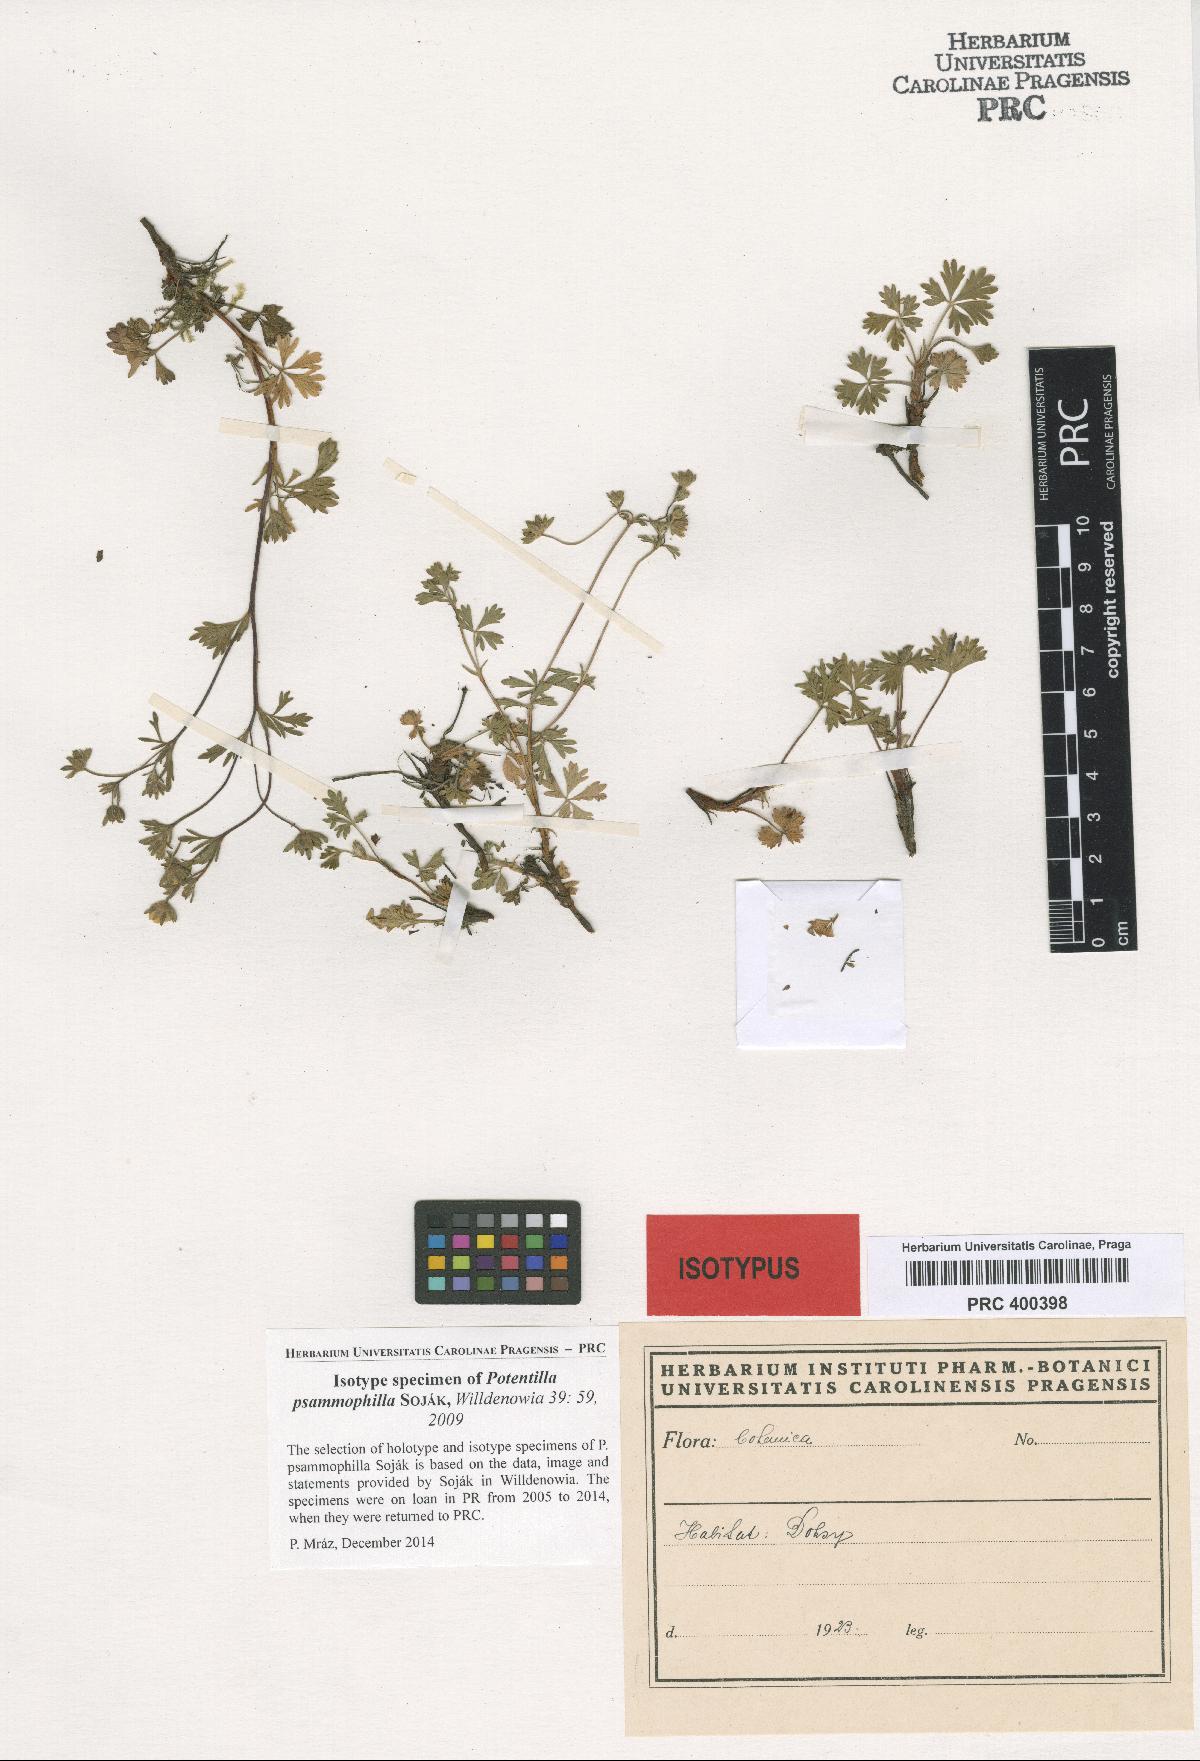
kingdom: Plantae
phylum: Tracheophyta
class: Magnoliopsida
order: Rosales
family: Rosaceae
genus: Potentilla
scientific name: Potentilla psammophila
